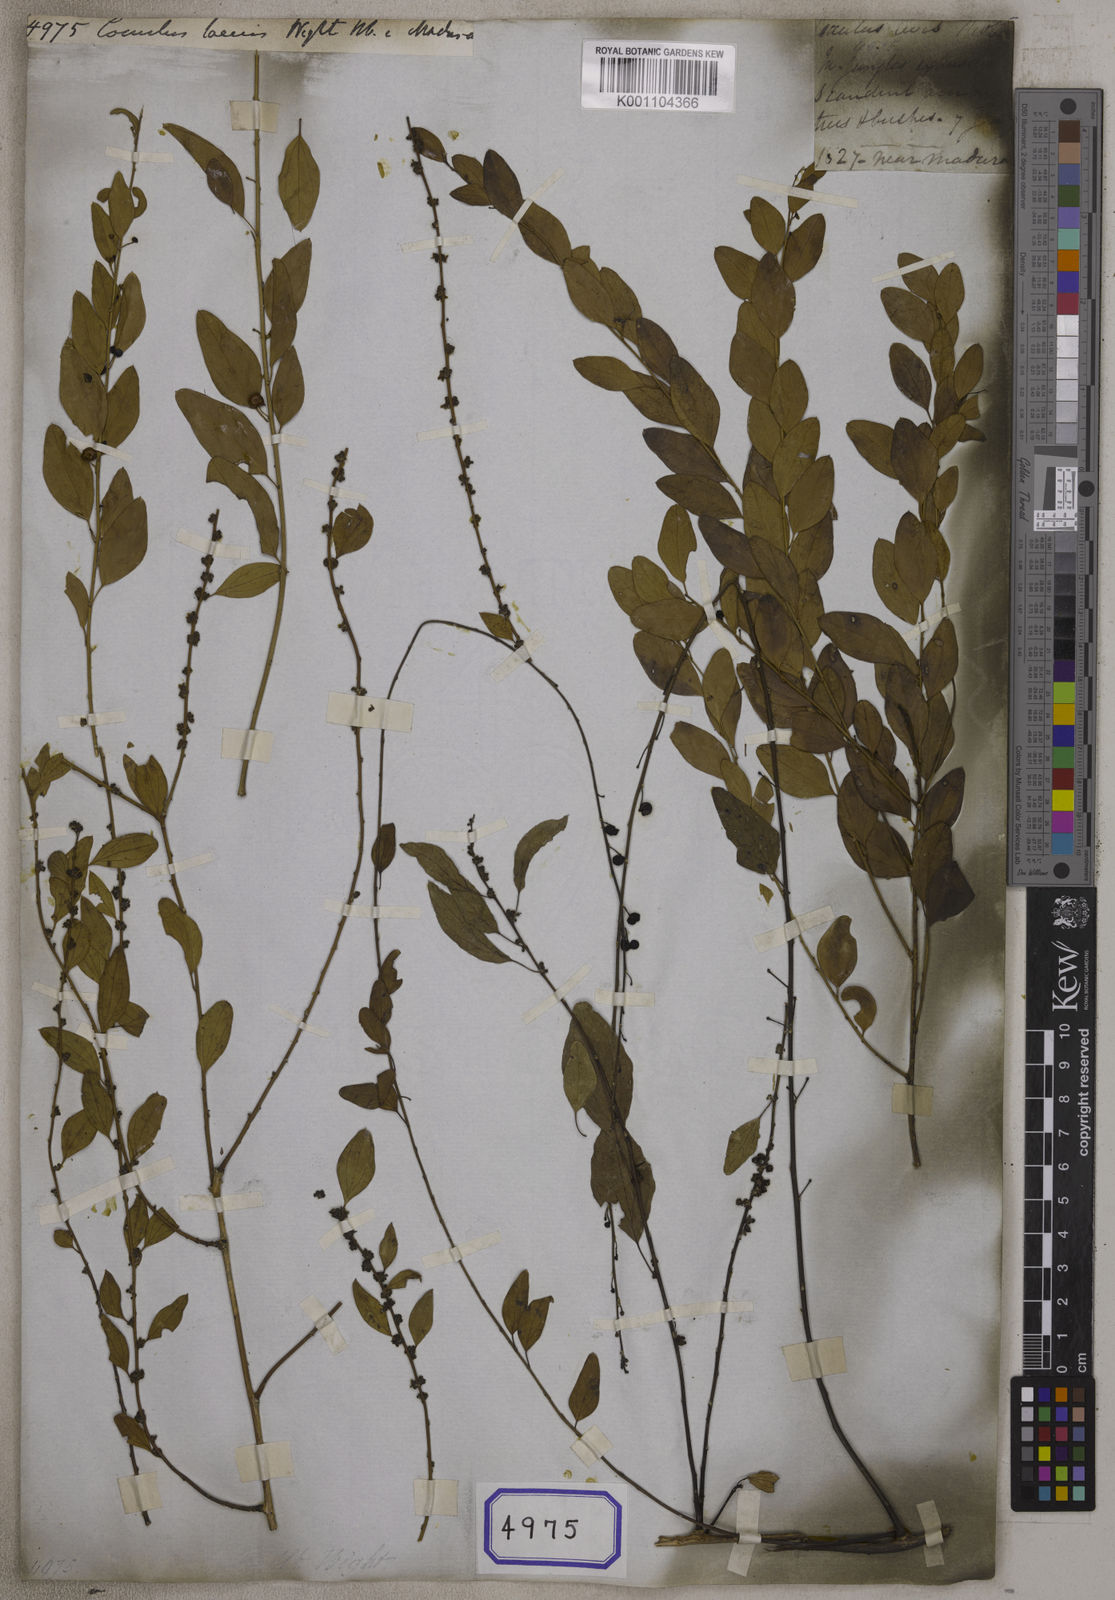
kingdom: Plantae
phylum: Tracheophyta
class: Magnoliopsida
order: Ranunculales
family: Menispermaceae
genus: Cocculus
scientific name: Cocculus pendulus
